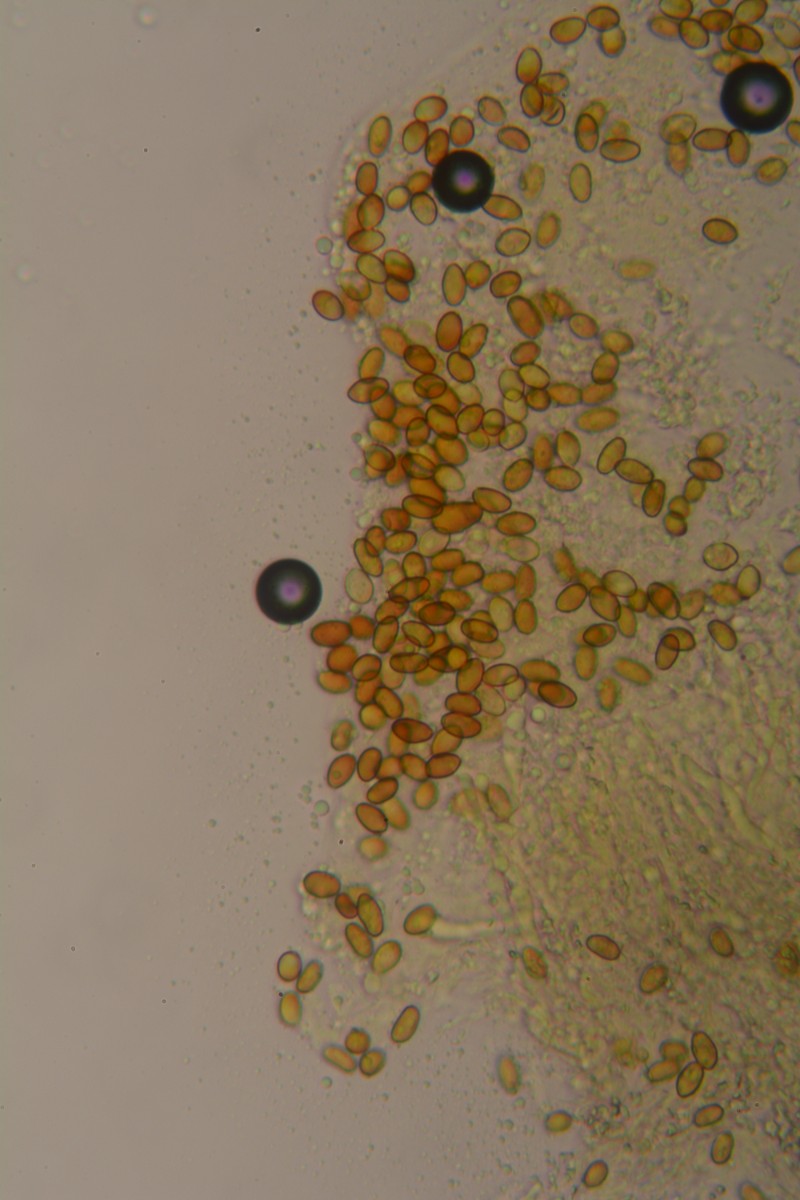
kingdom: Fungi
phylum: Basidiomycota
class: Agaricomycetes
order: Boletales
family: Coniophoraceae
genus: Coniophora
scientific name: Coniophora puteana
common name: gul tømmersvamp
